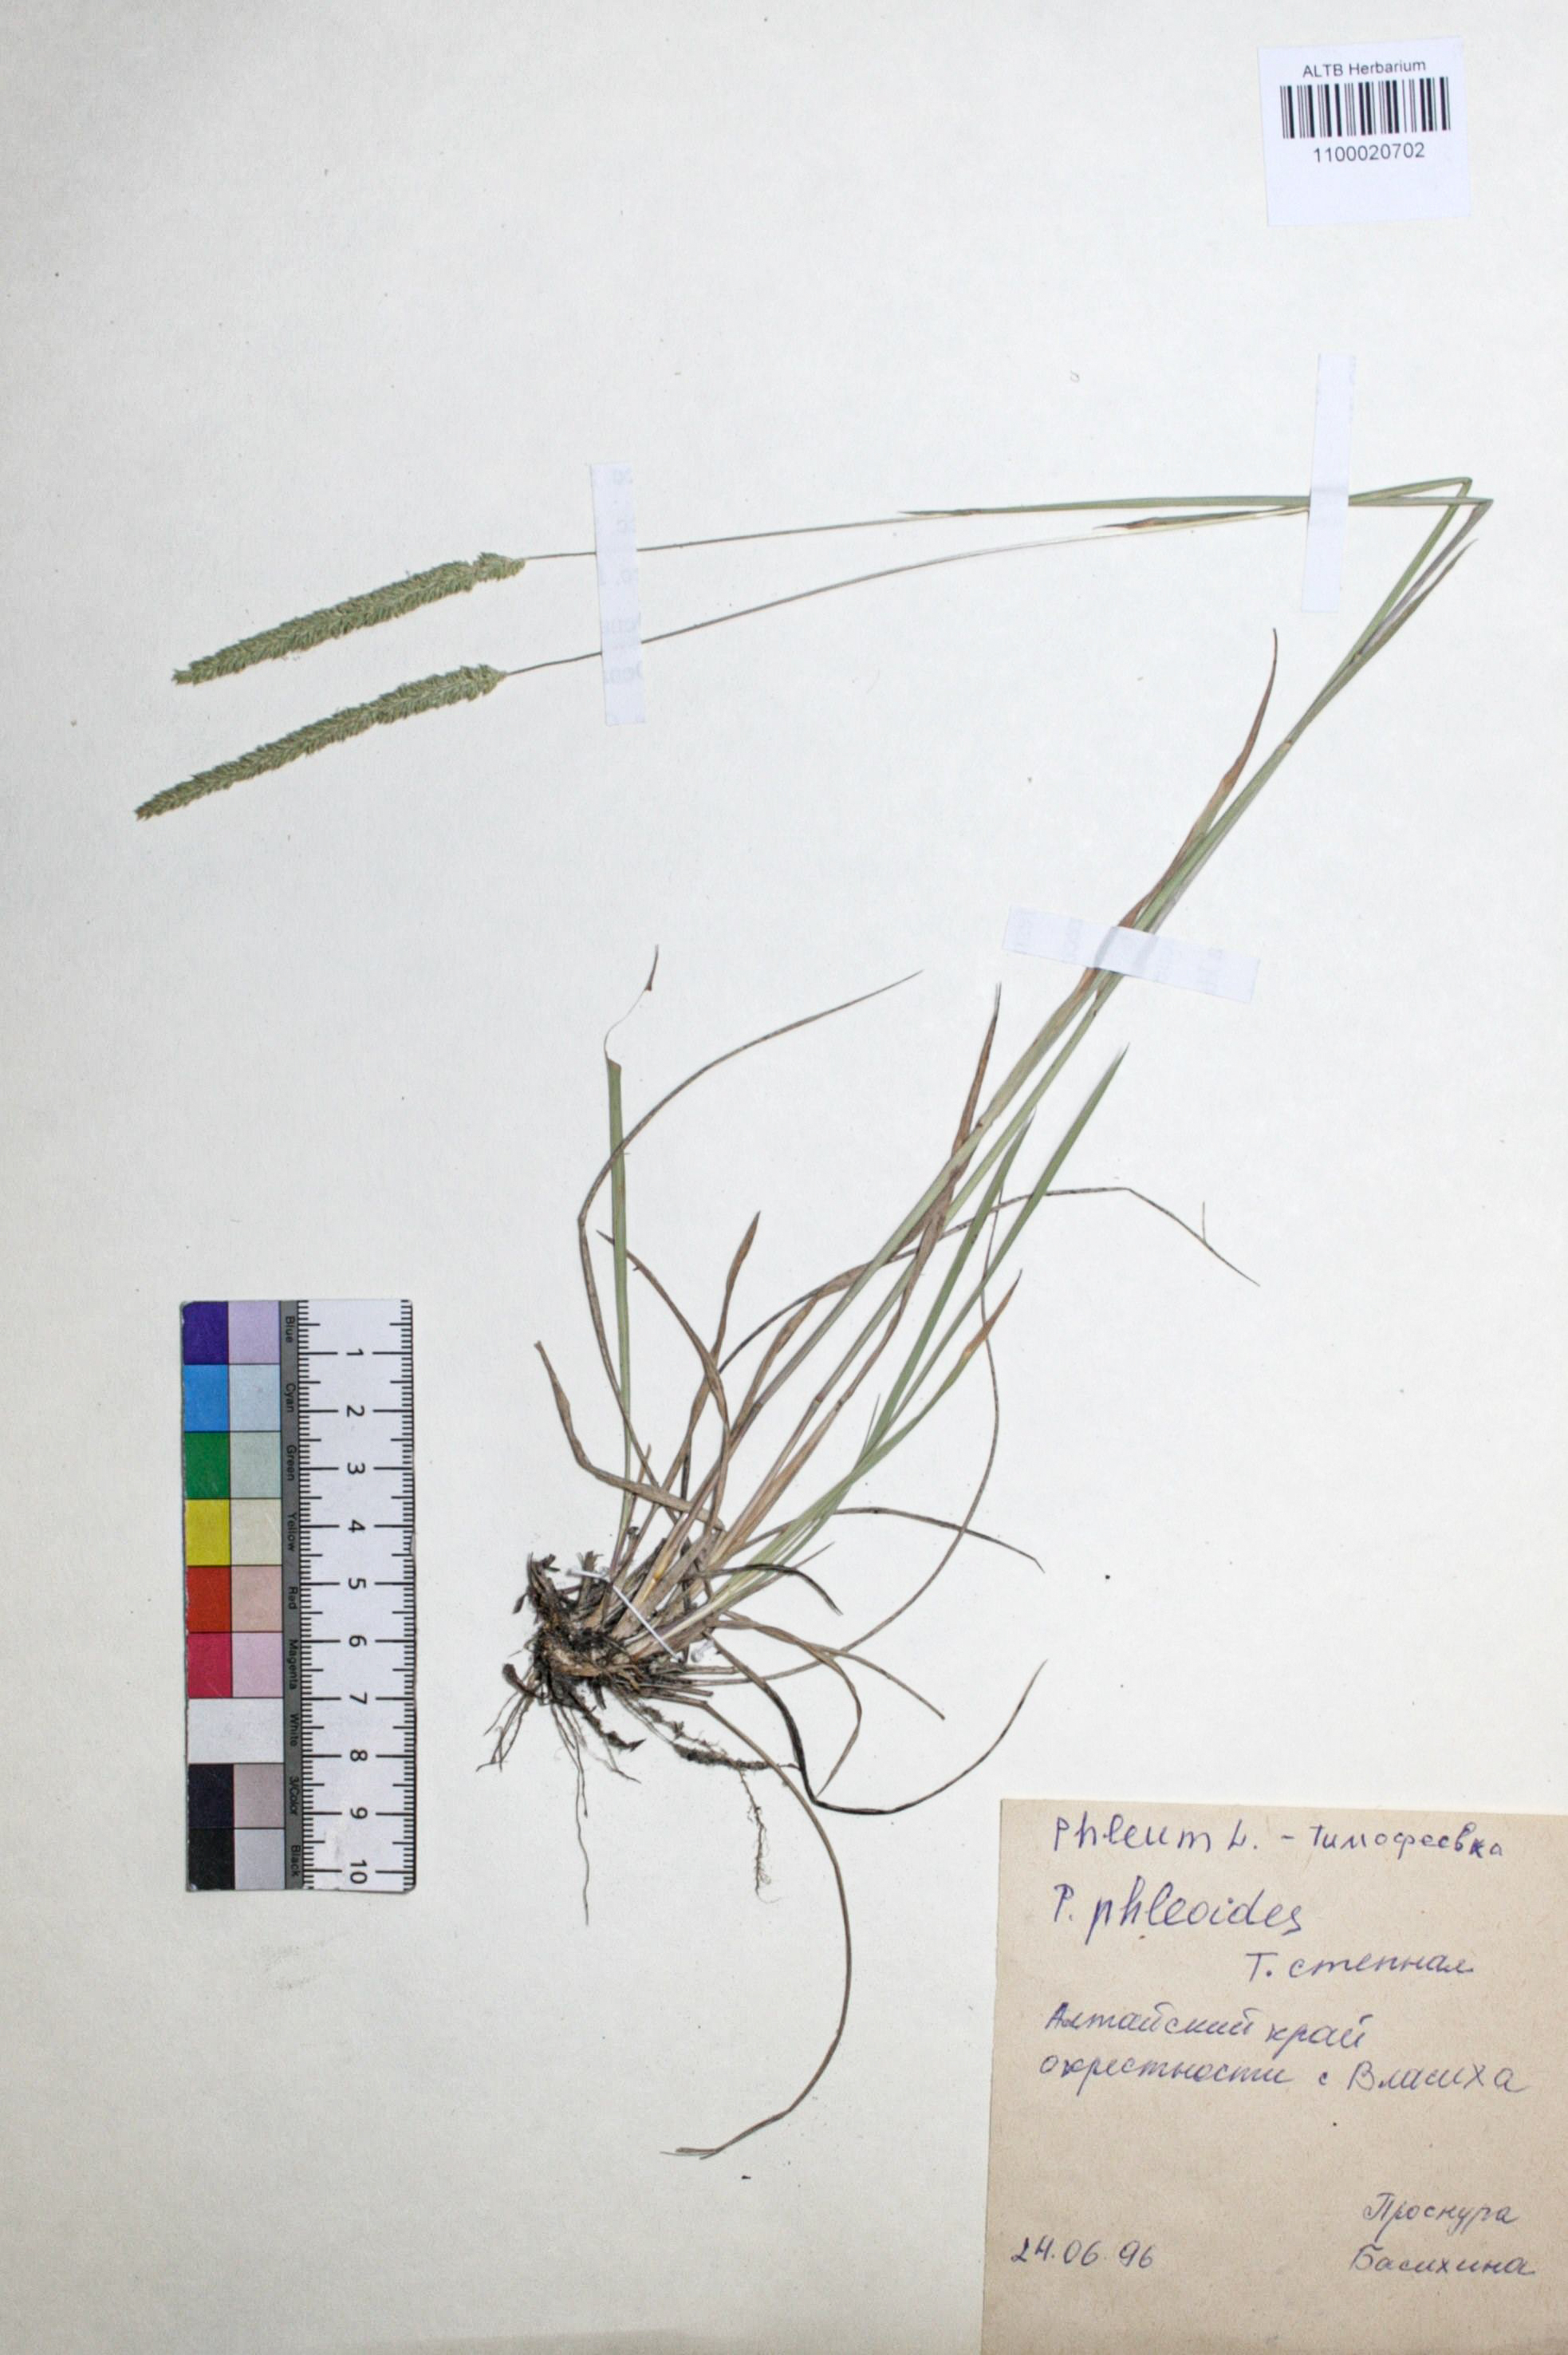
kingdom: Plantae
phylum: Tracheophyta
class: Liliopsida
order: Poales
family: Poaceae
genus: Phleum
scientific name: Phleum phleoides
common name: Purple-stem cat's-tail
